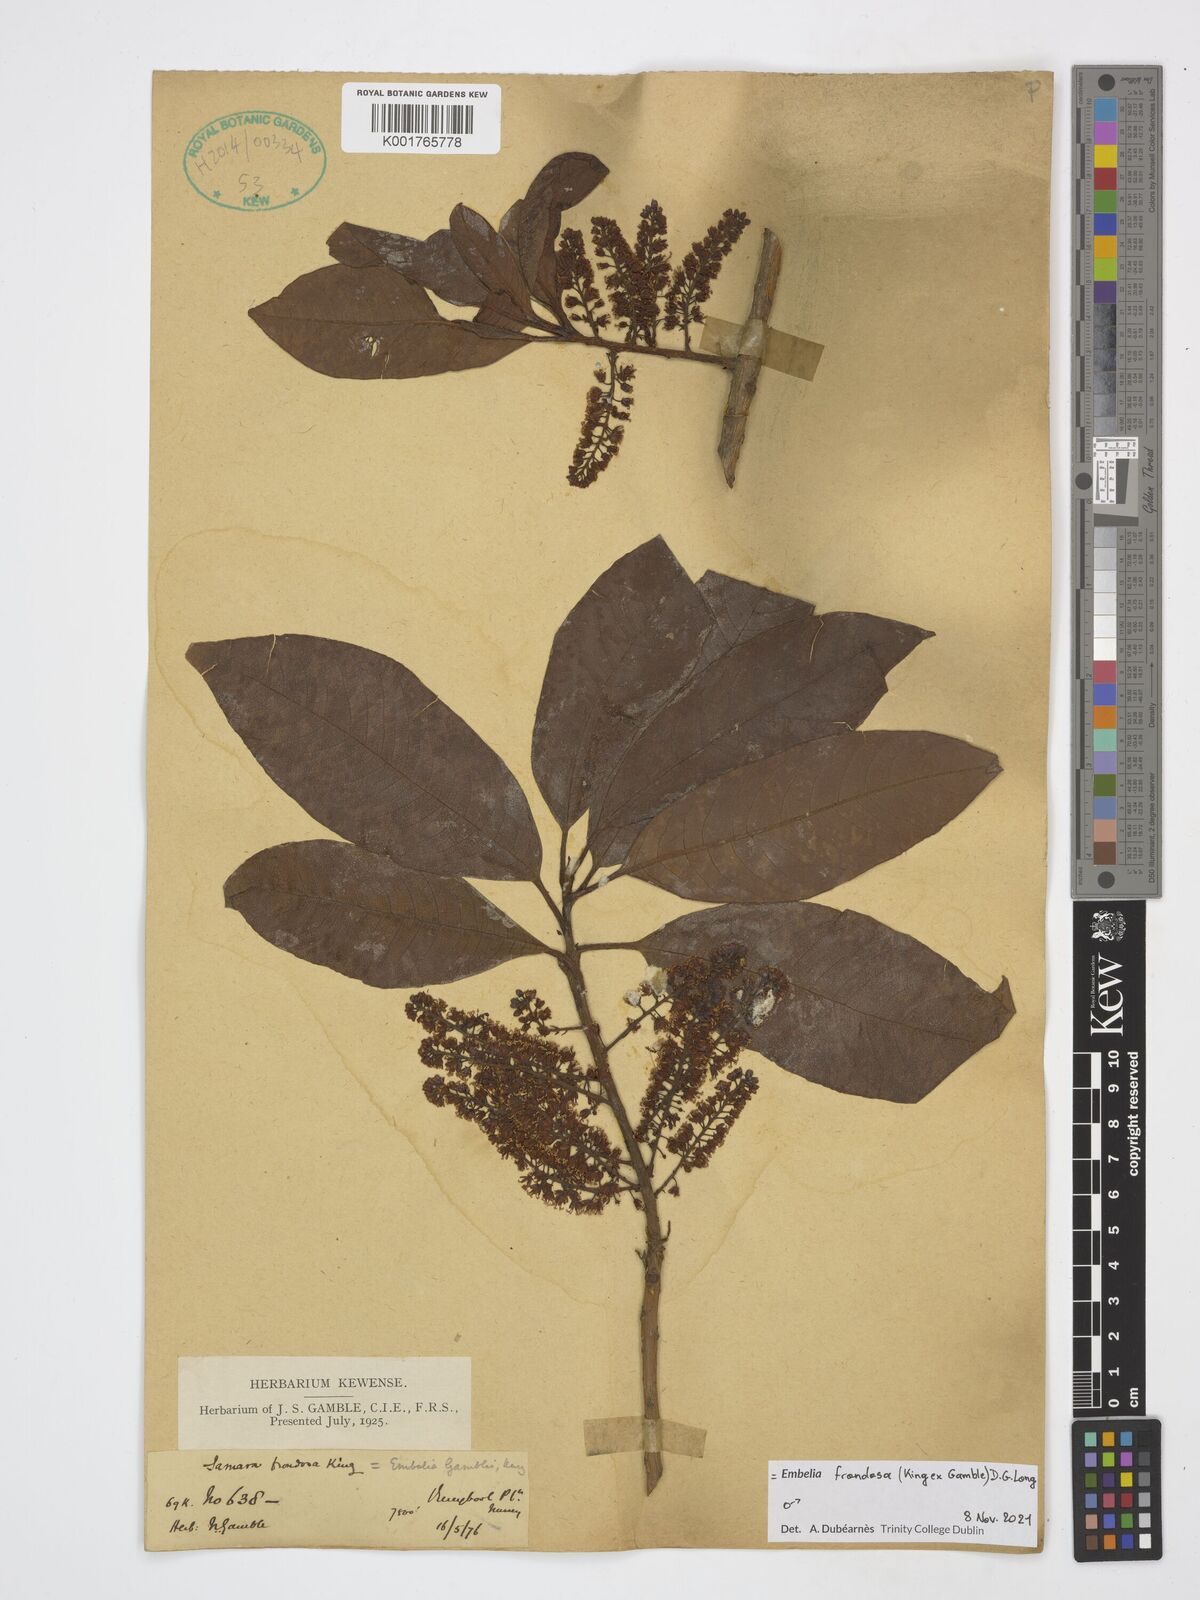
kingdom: Plantae
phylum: Tracheophyta
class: Magnoliopsida
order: Ericales
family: Primulaceae
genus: Embelia
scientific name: Embelia frondosa
